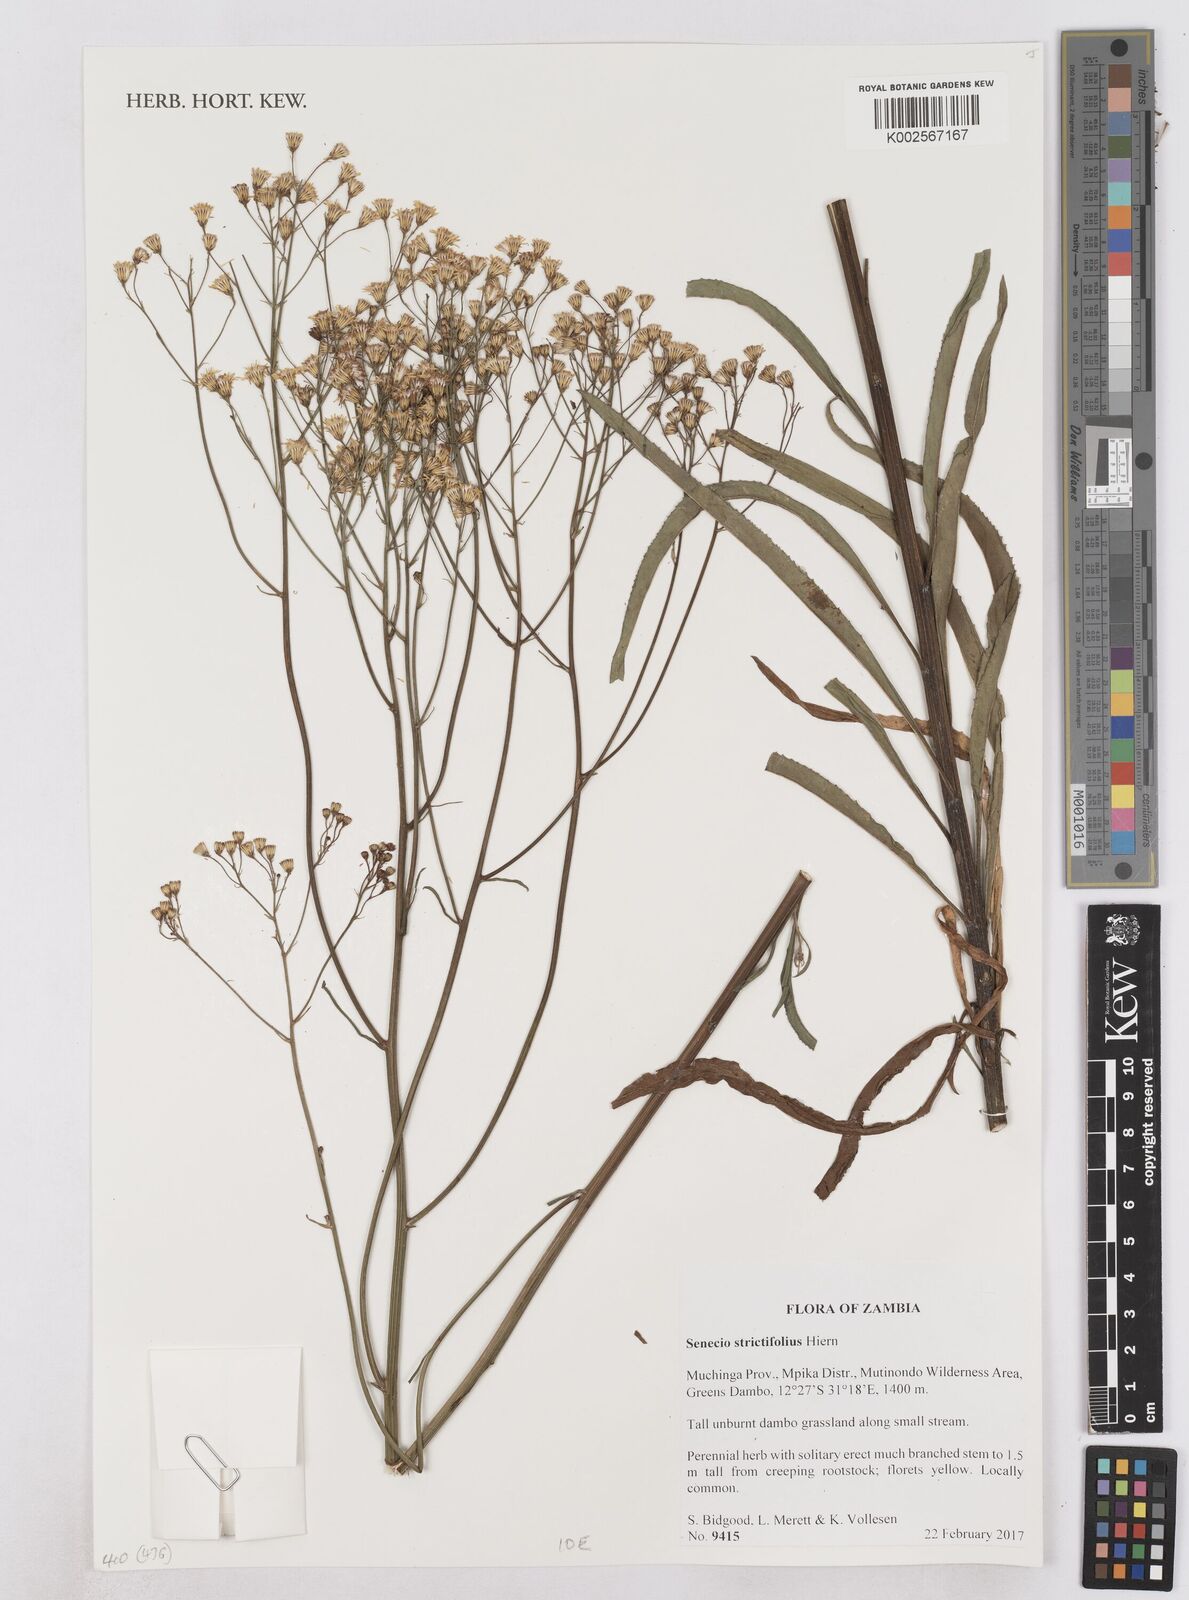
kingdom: Plantae
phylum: Tracheophyta
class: Magnoliopsida
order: Asterales
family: Asteraceae
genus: Senecio
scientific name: Senecio strictifolius
